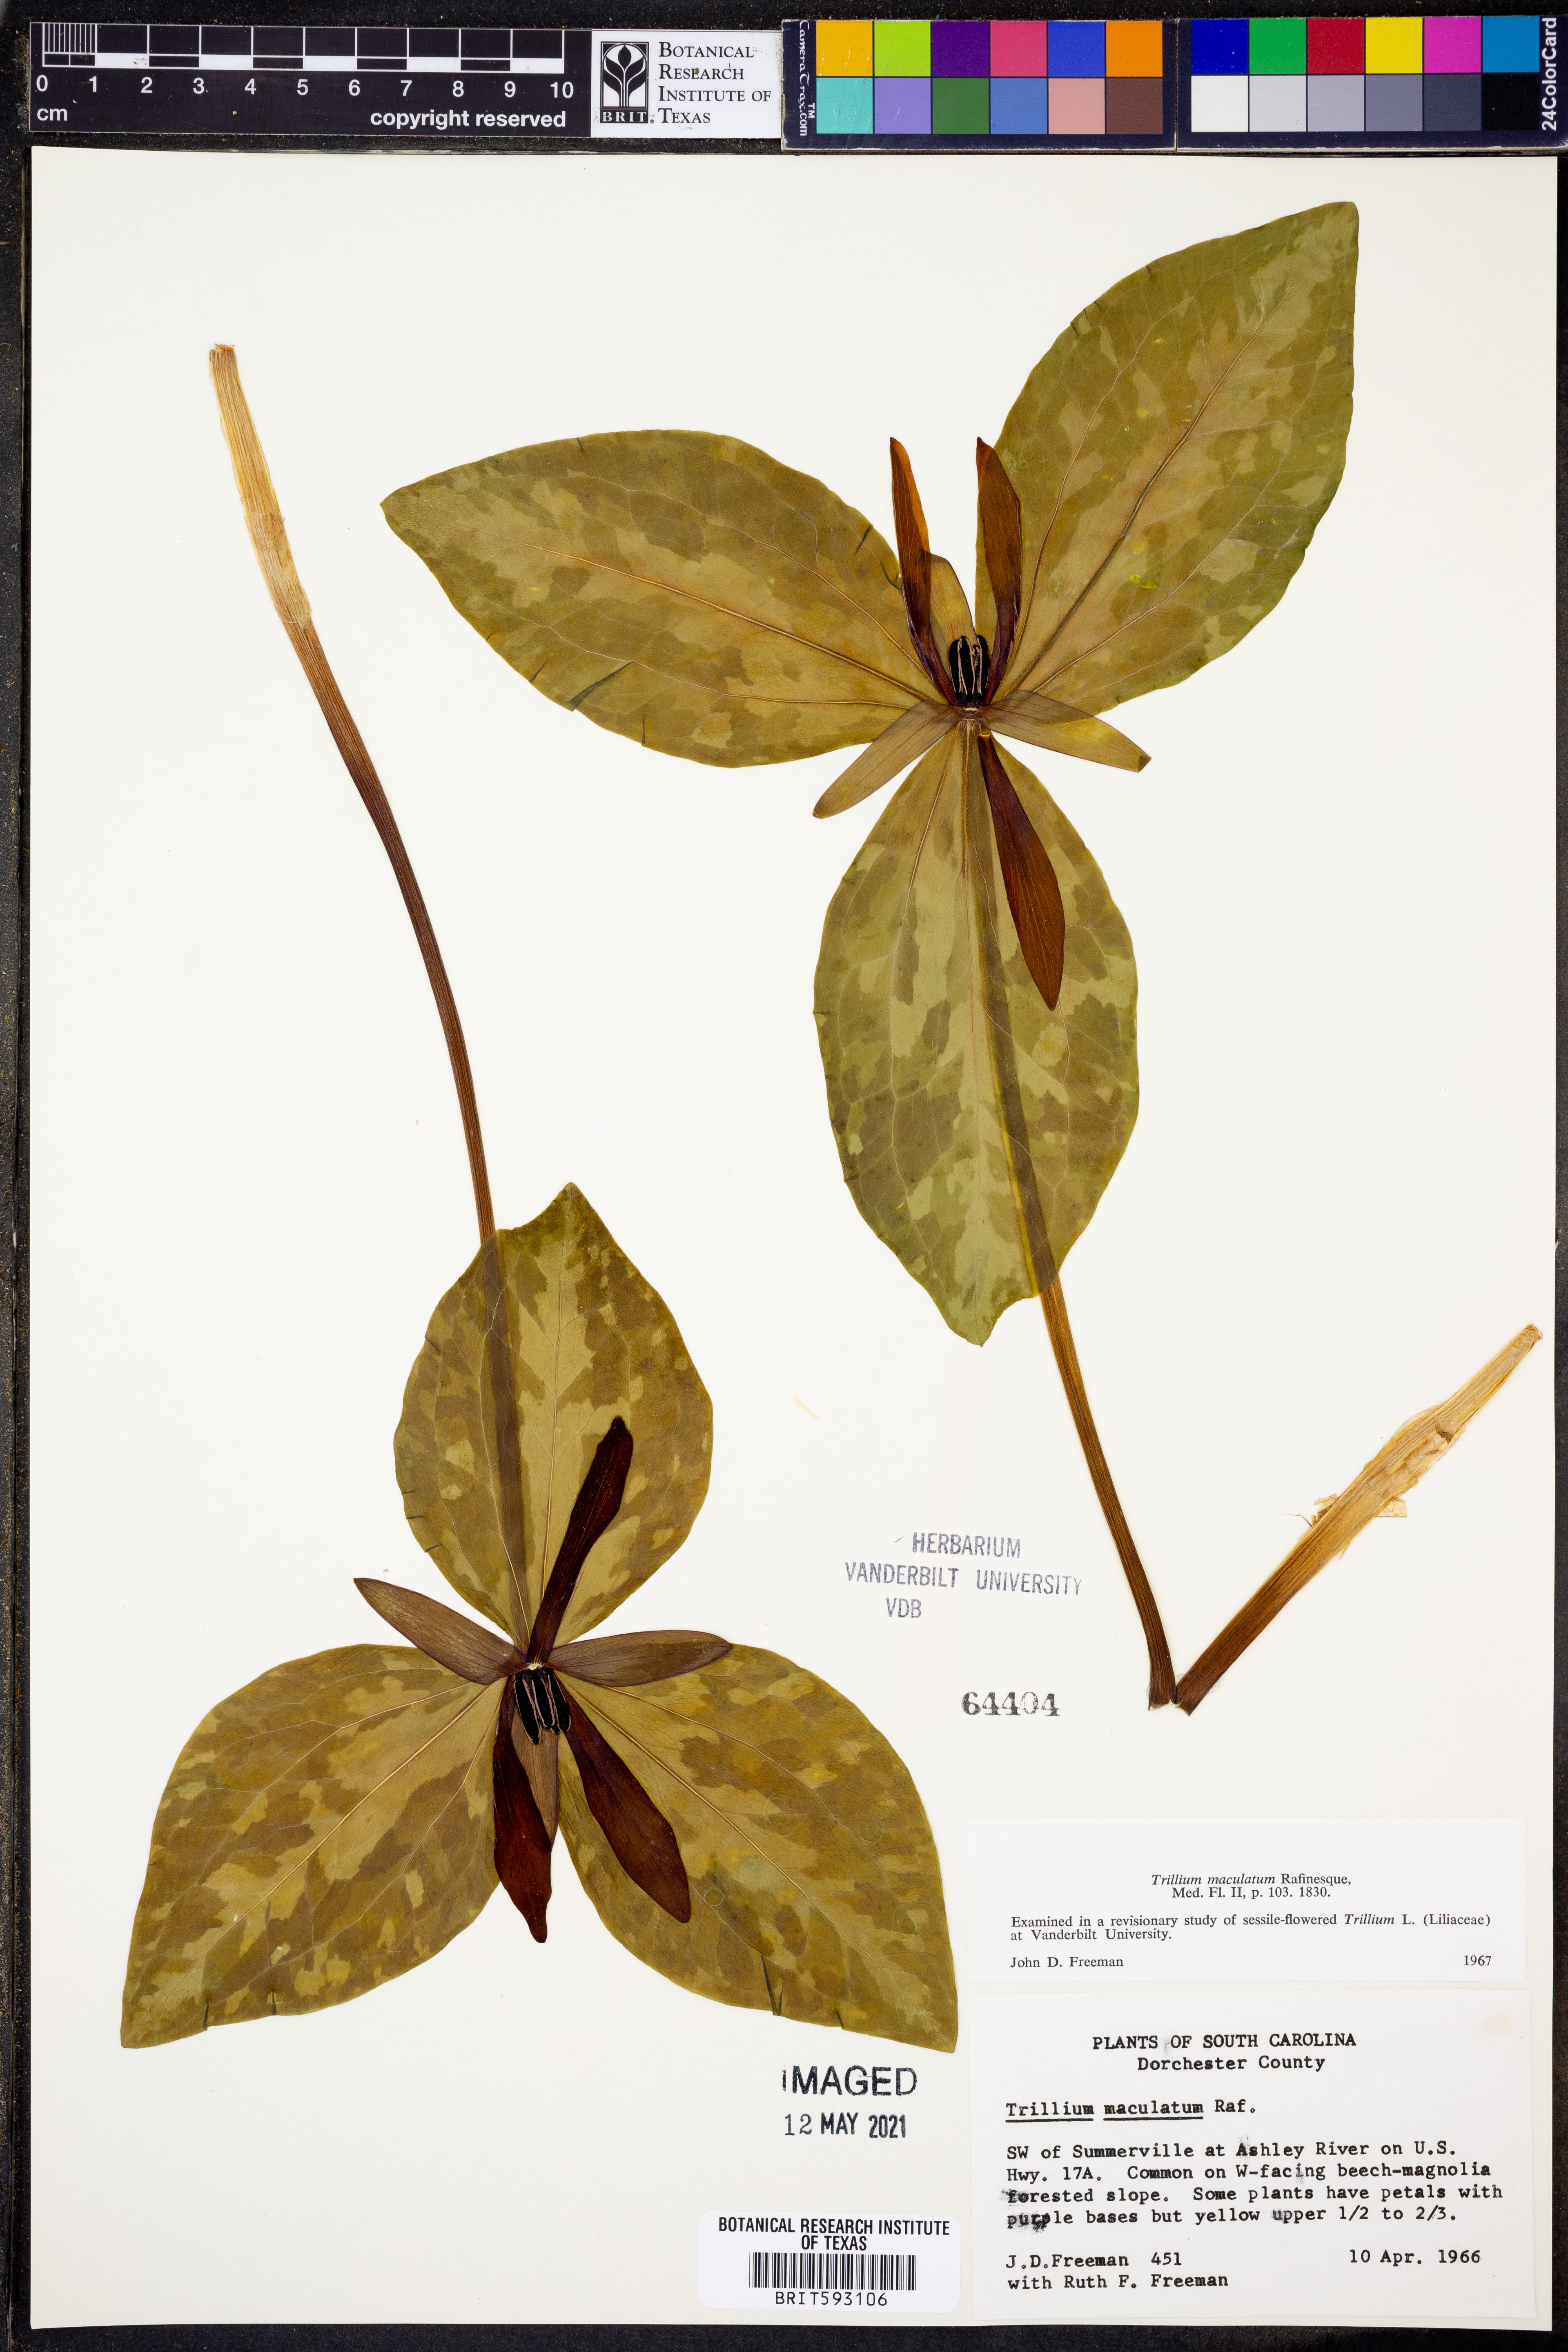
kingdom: Plantae
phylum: Tracheophyta
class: Liliopsida
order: Liliales
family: Melanthiaceae
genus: Trillium
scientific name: Trillium maculatum
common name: Mottled trillium
